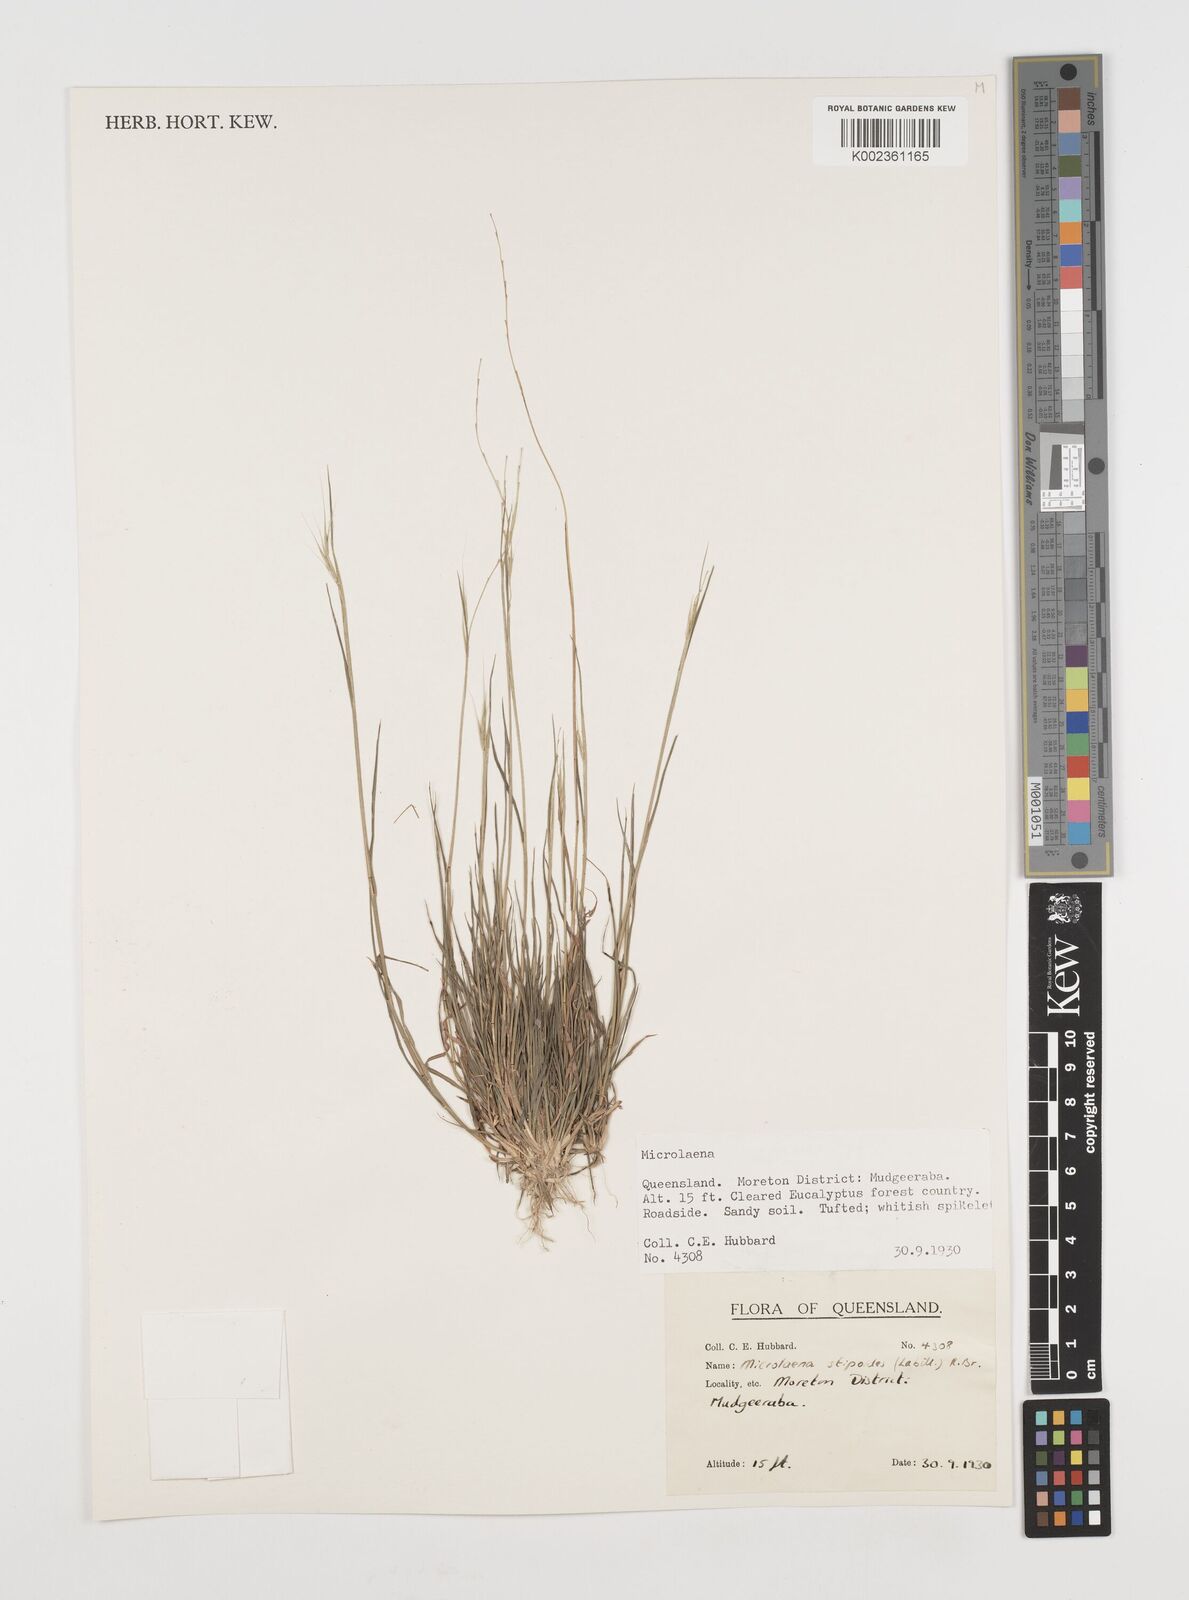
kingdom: Plantae
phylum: Tracheophyta
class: Liliopsida
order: Poales
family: Poaceae
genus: Microlaena
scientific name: Microlaena stipoides
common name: Meadow ricegrass
